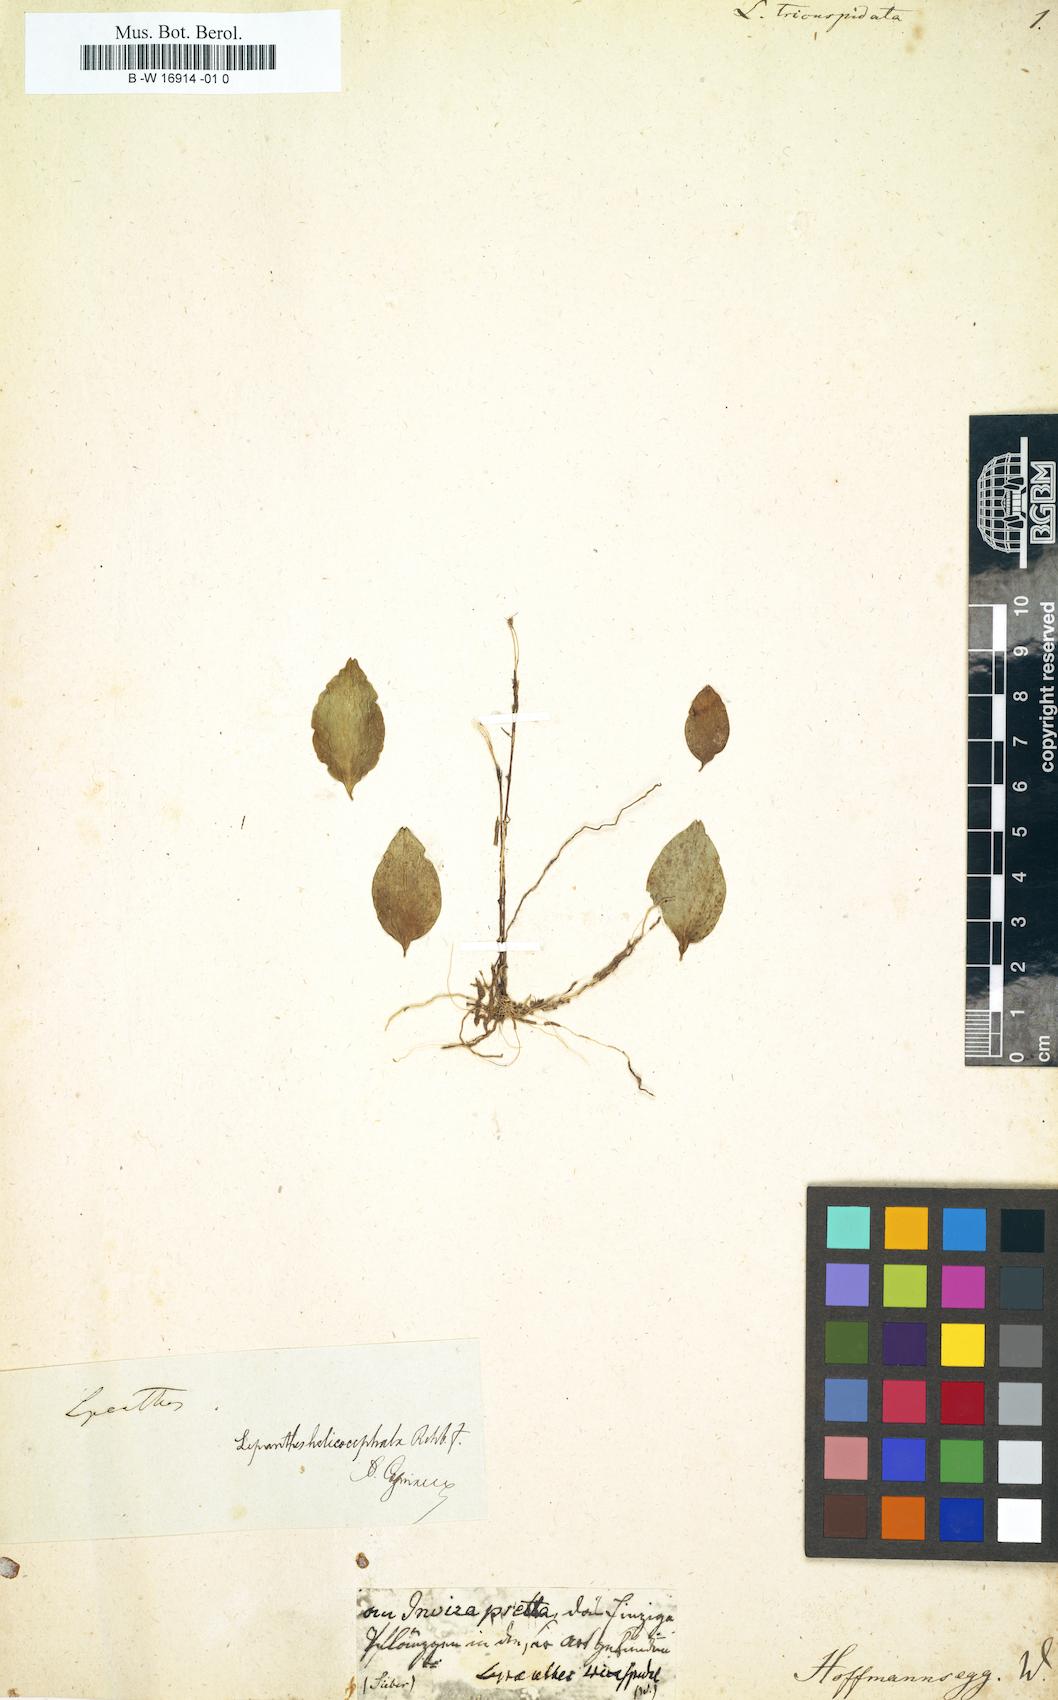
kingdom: Plantae
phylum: Tracheophyta
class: Liliopsida
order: Asparagales
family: Orchidaceae
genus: Lepanthes
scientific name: Lepanthes tricuspidata
